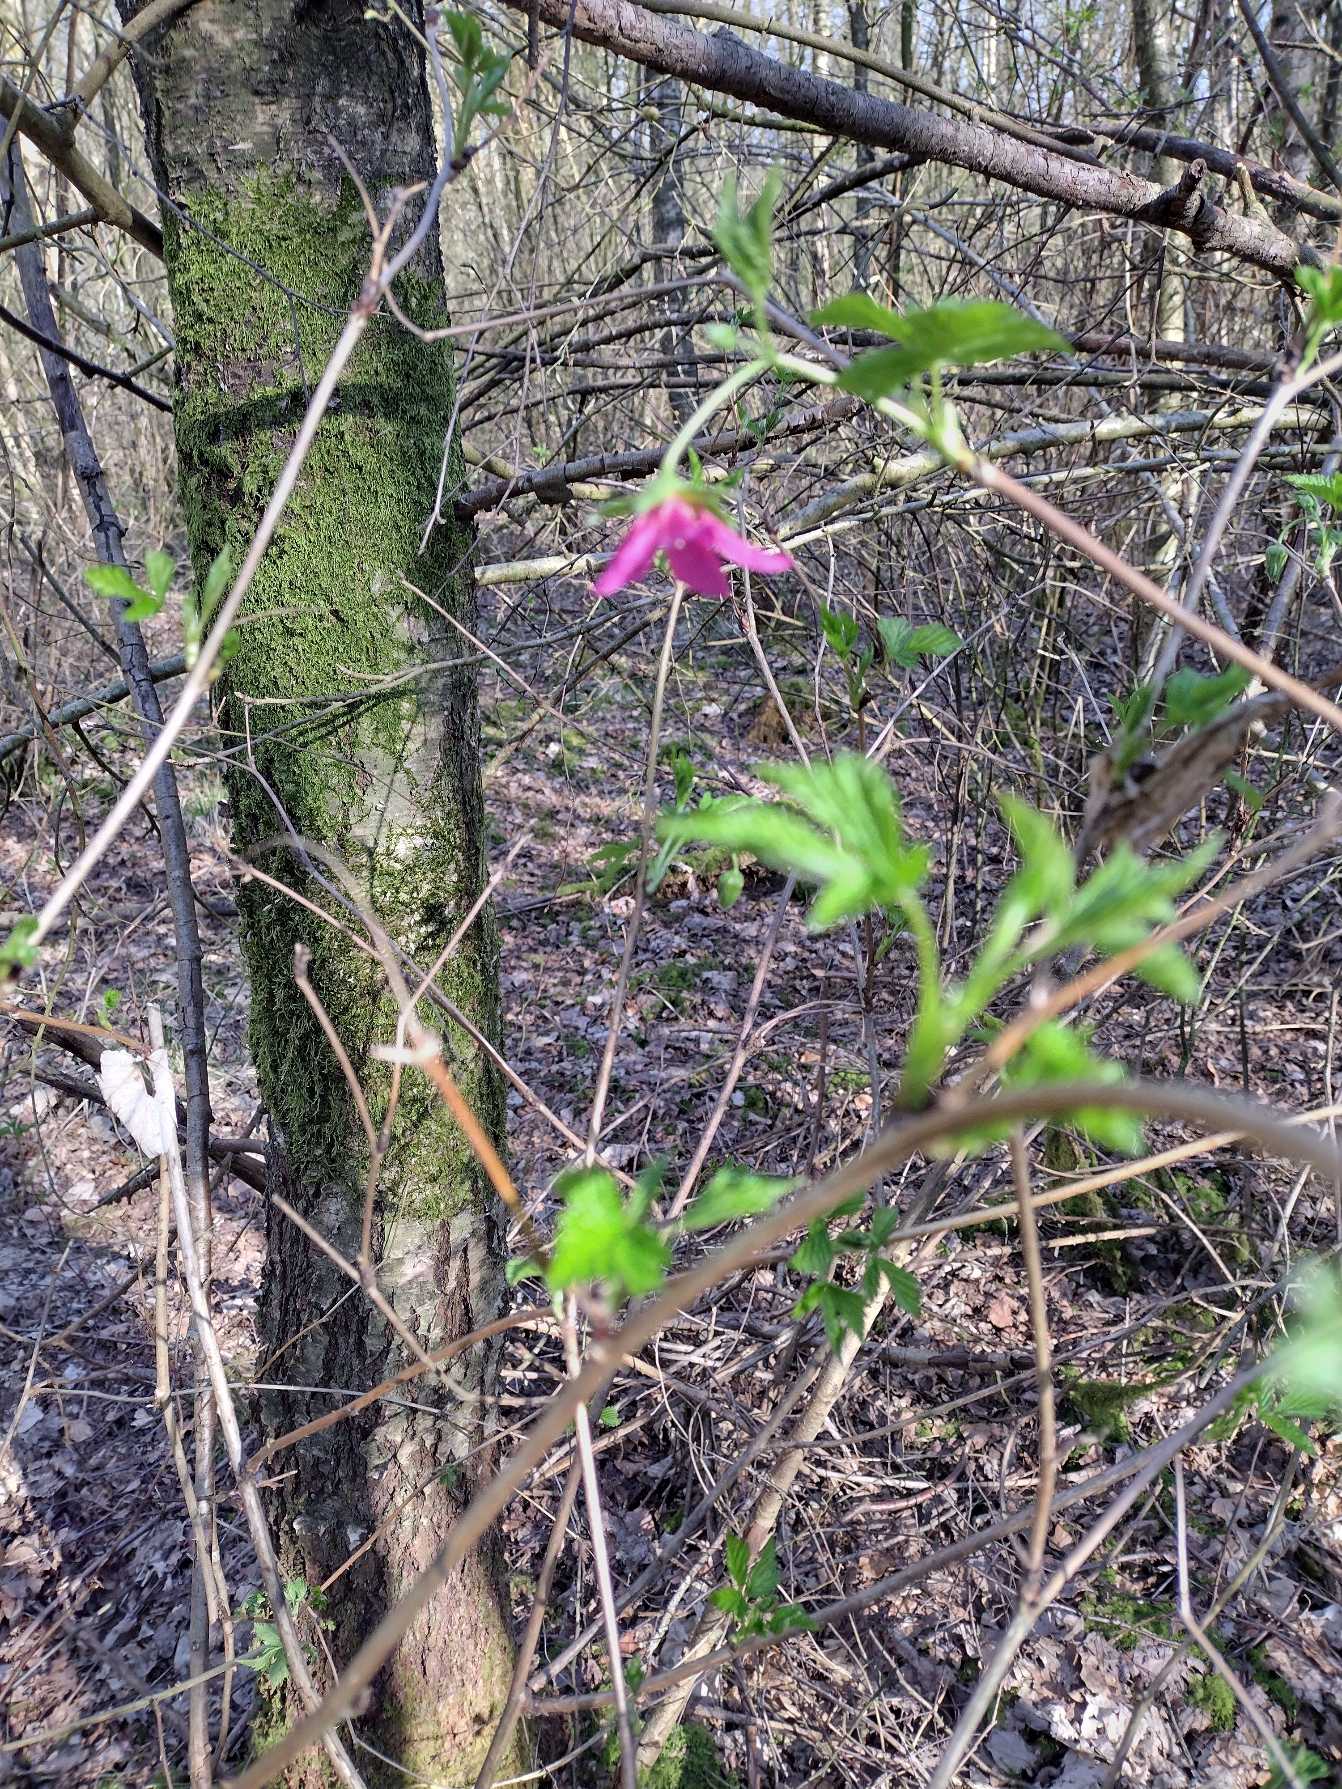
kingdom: Plantae
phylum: Tracheophyta
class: Magnoliopsida
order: Rosales
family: Rosaceae
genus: Rubus
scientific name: Rubus spectabilis
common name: Laksebær
